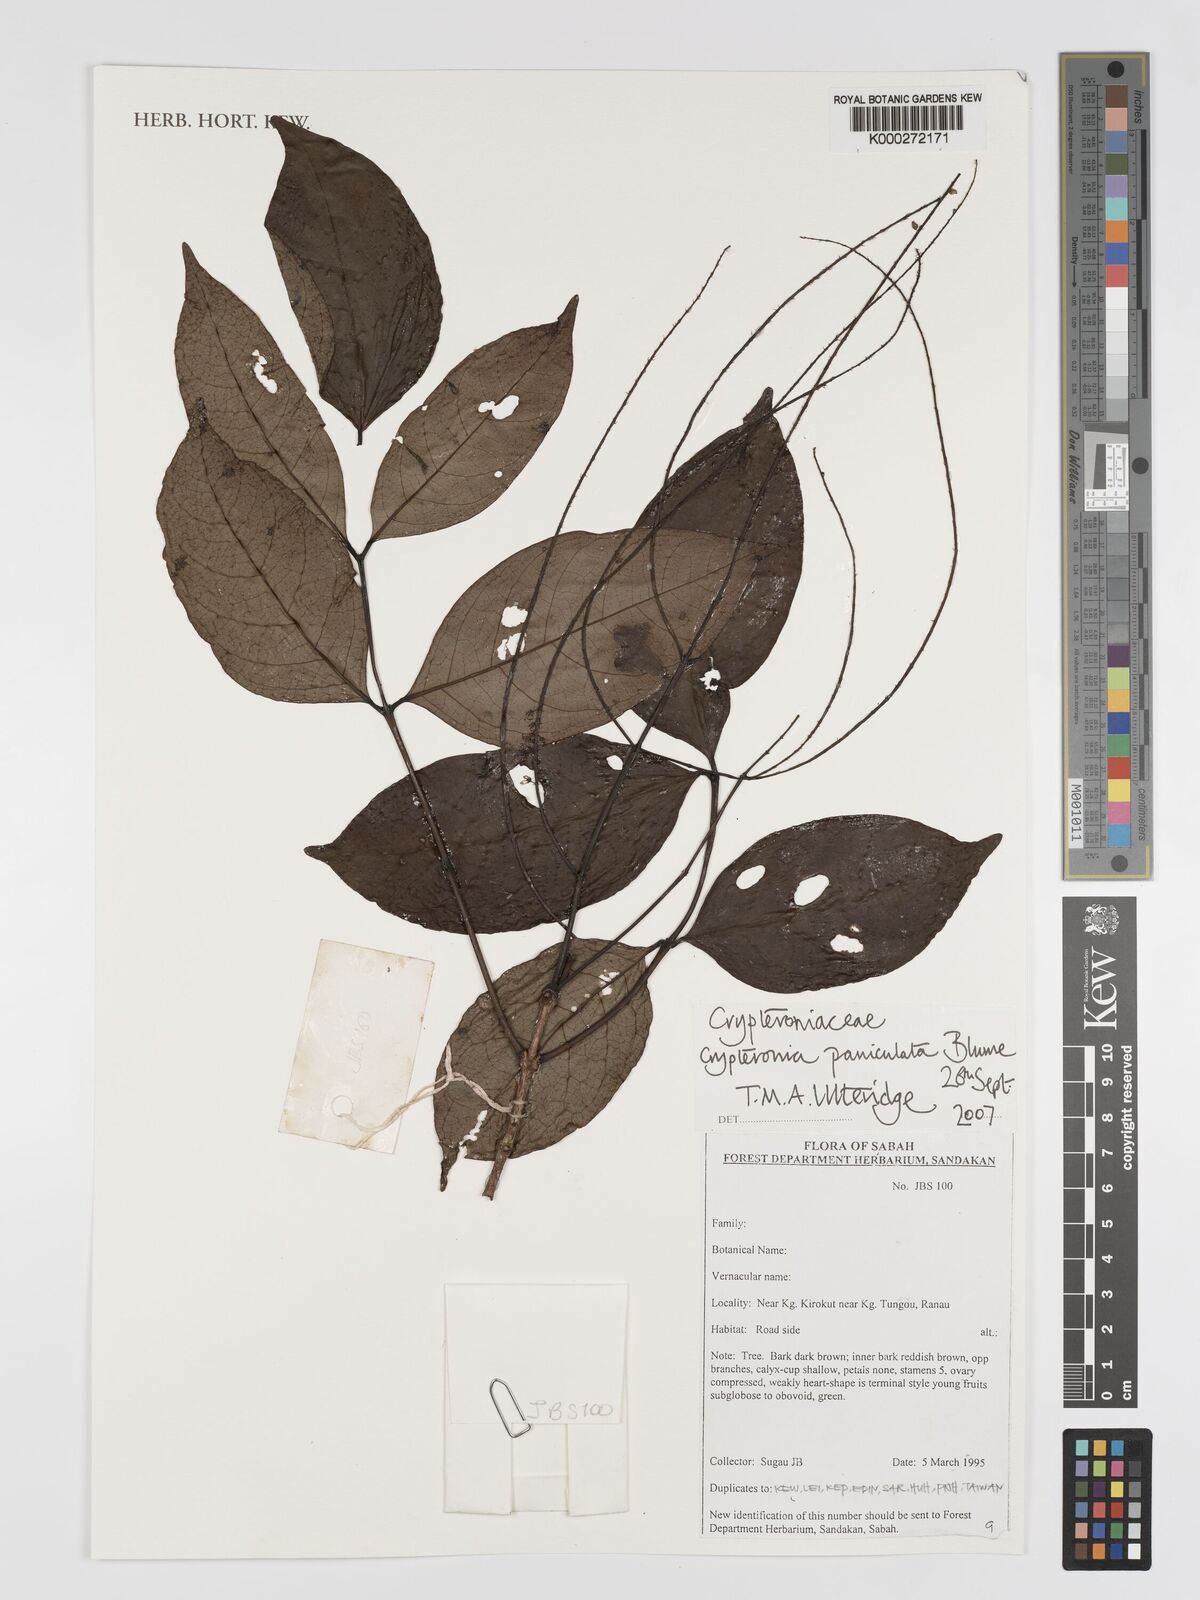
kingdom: Plantae
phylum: Tracheophyta
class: Magnoliopsida
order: Myrtales
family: Crypteroniaceae
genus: Crypteronia
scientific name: Crypteronia paniculata
